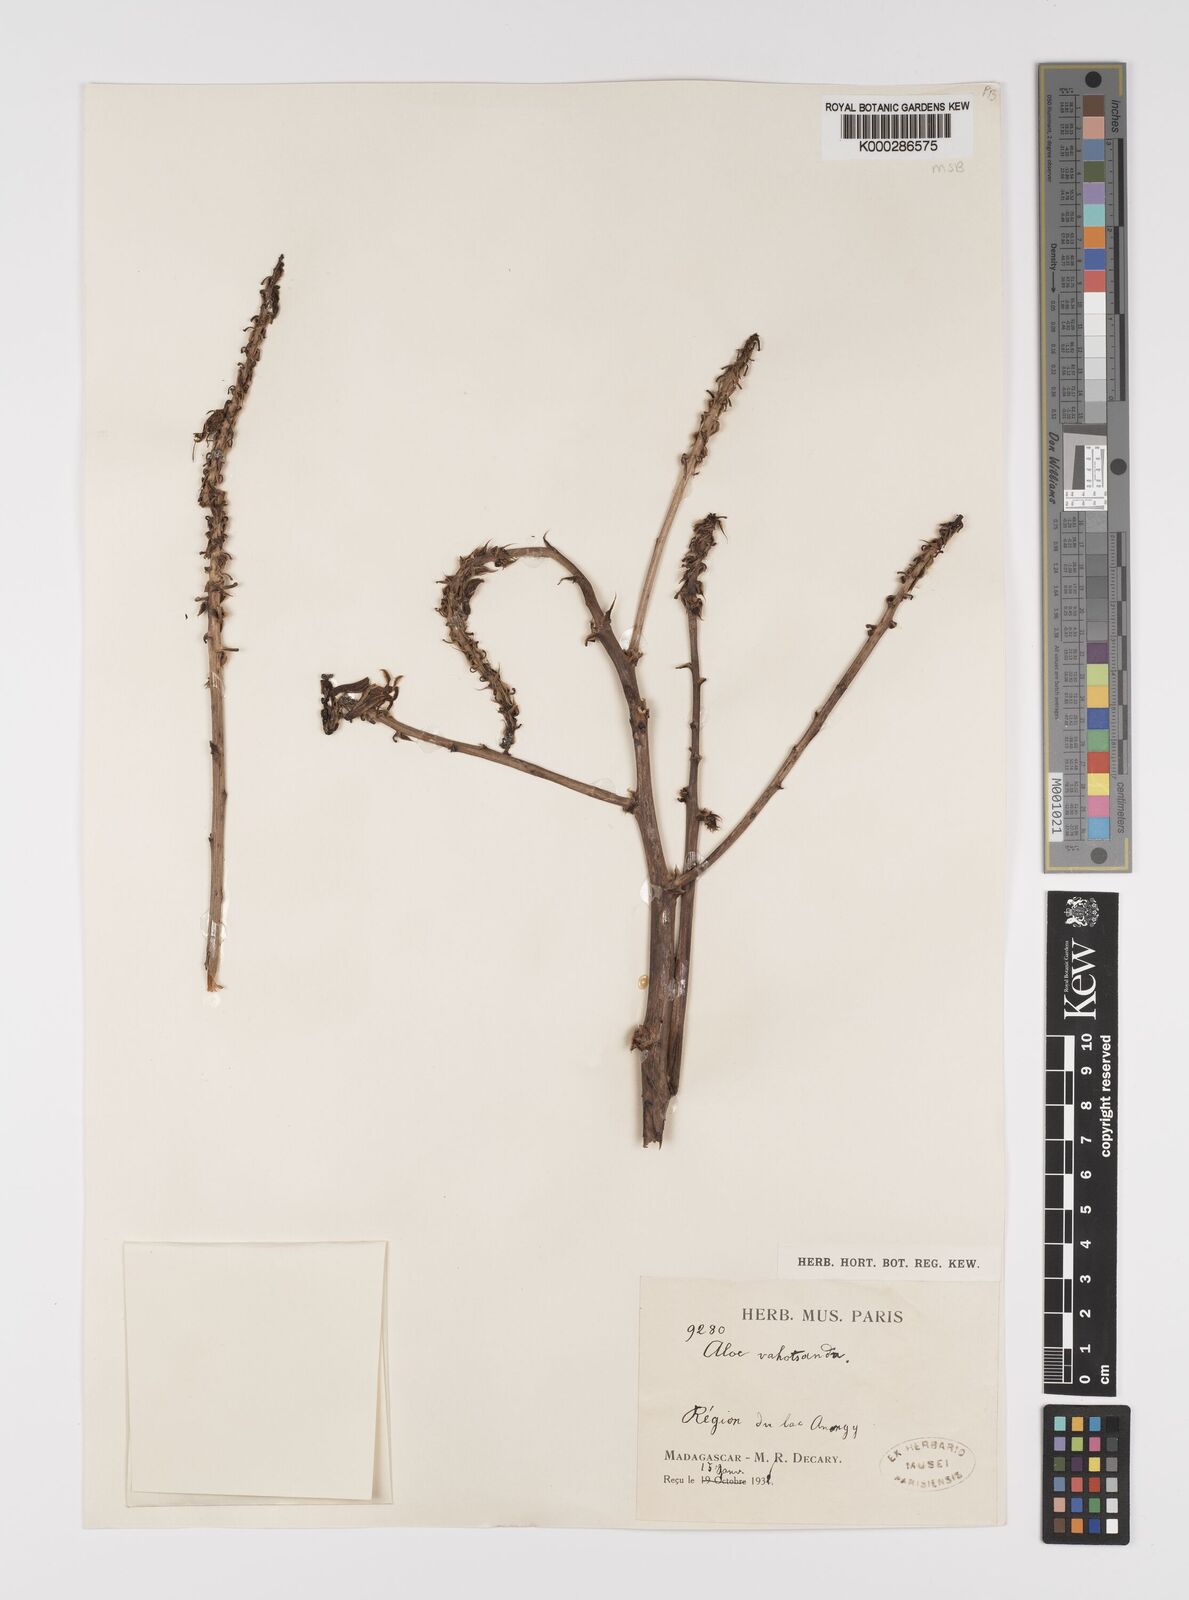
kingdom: Plantae
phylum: Tracheophyta
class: Liliopsida
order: Asparagales
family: Asphodelaceae
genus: Aloe
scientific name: Aloe vaotsanda
